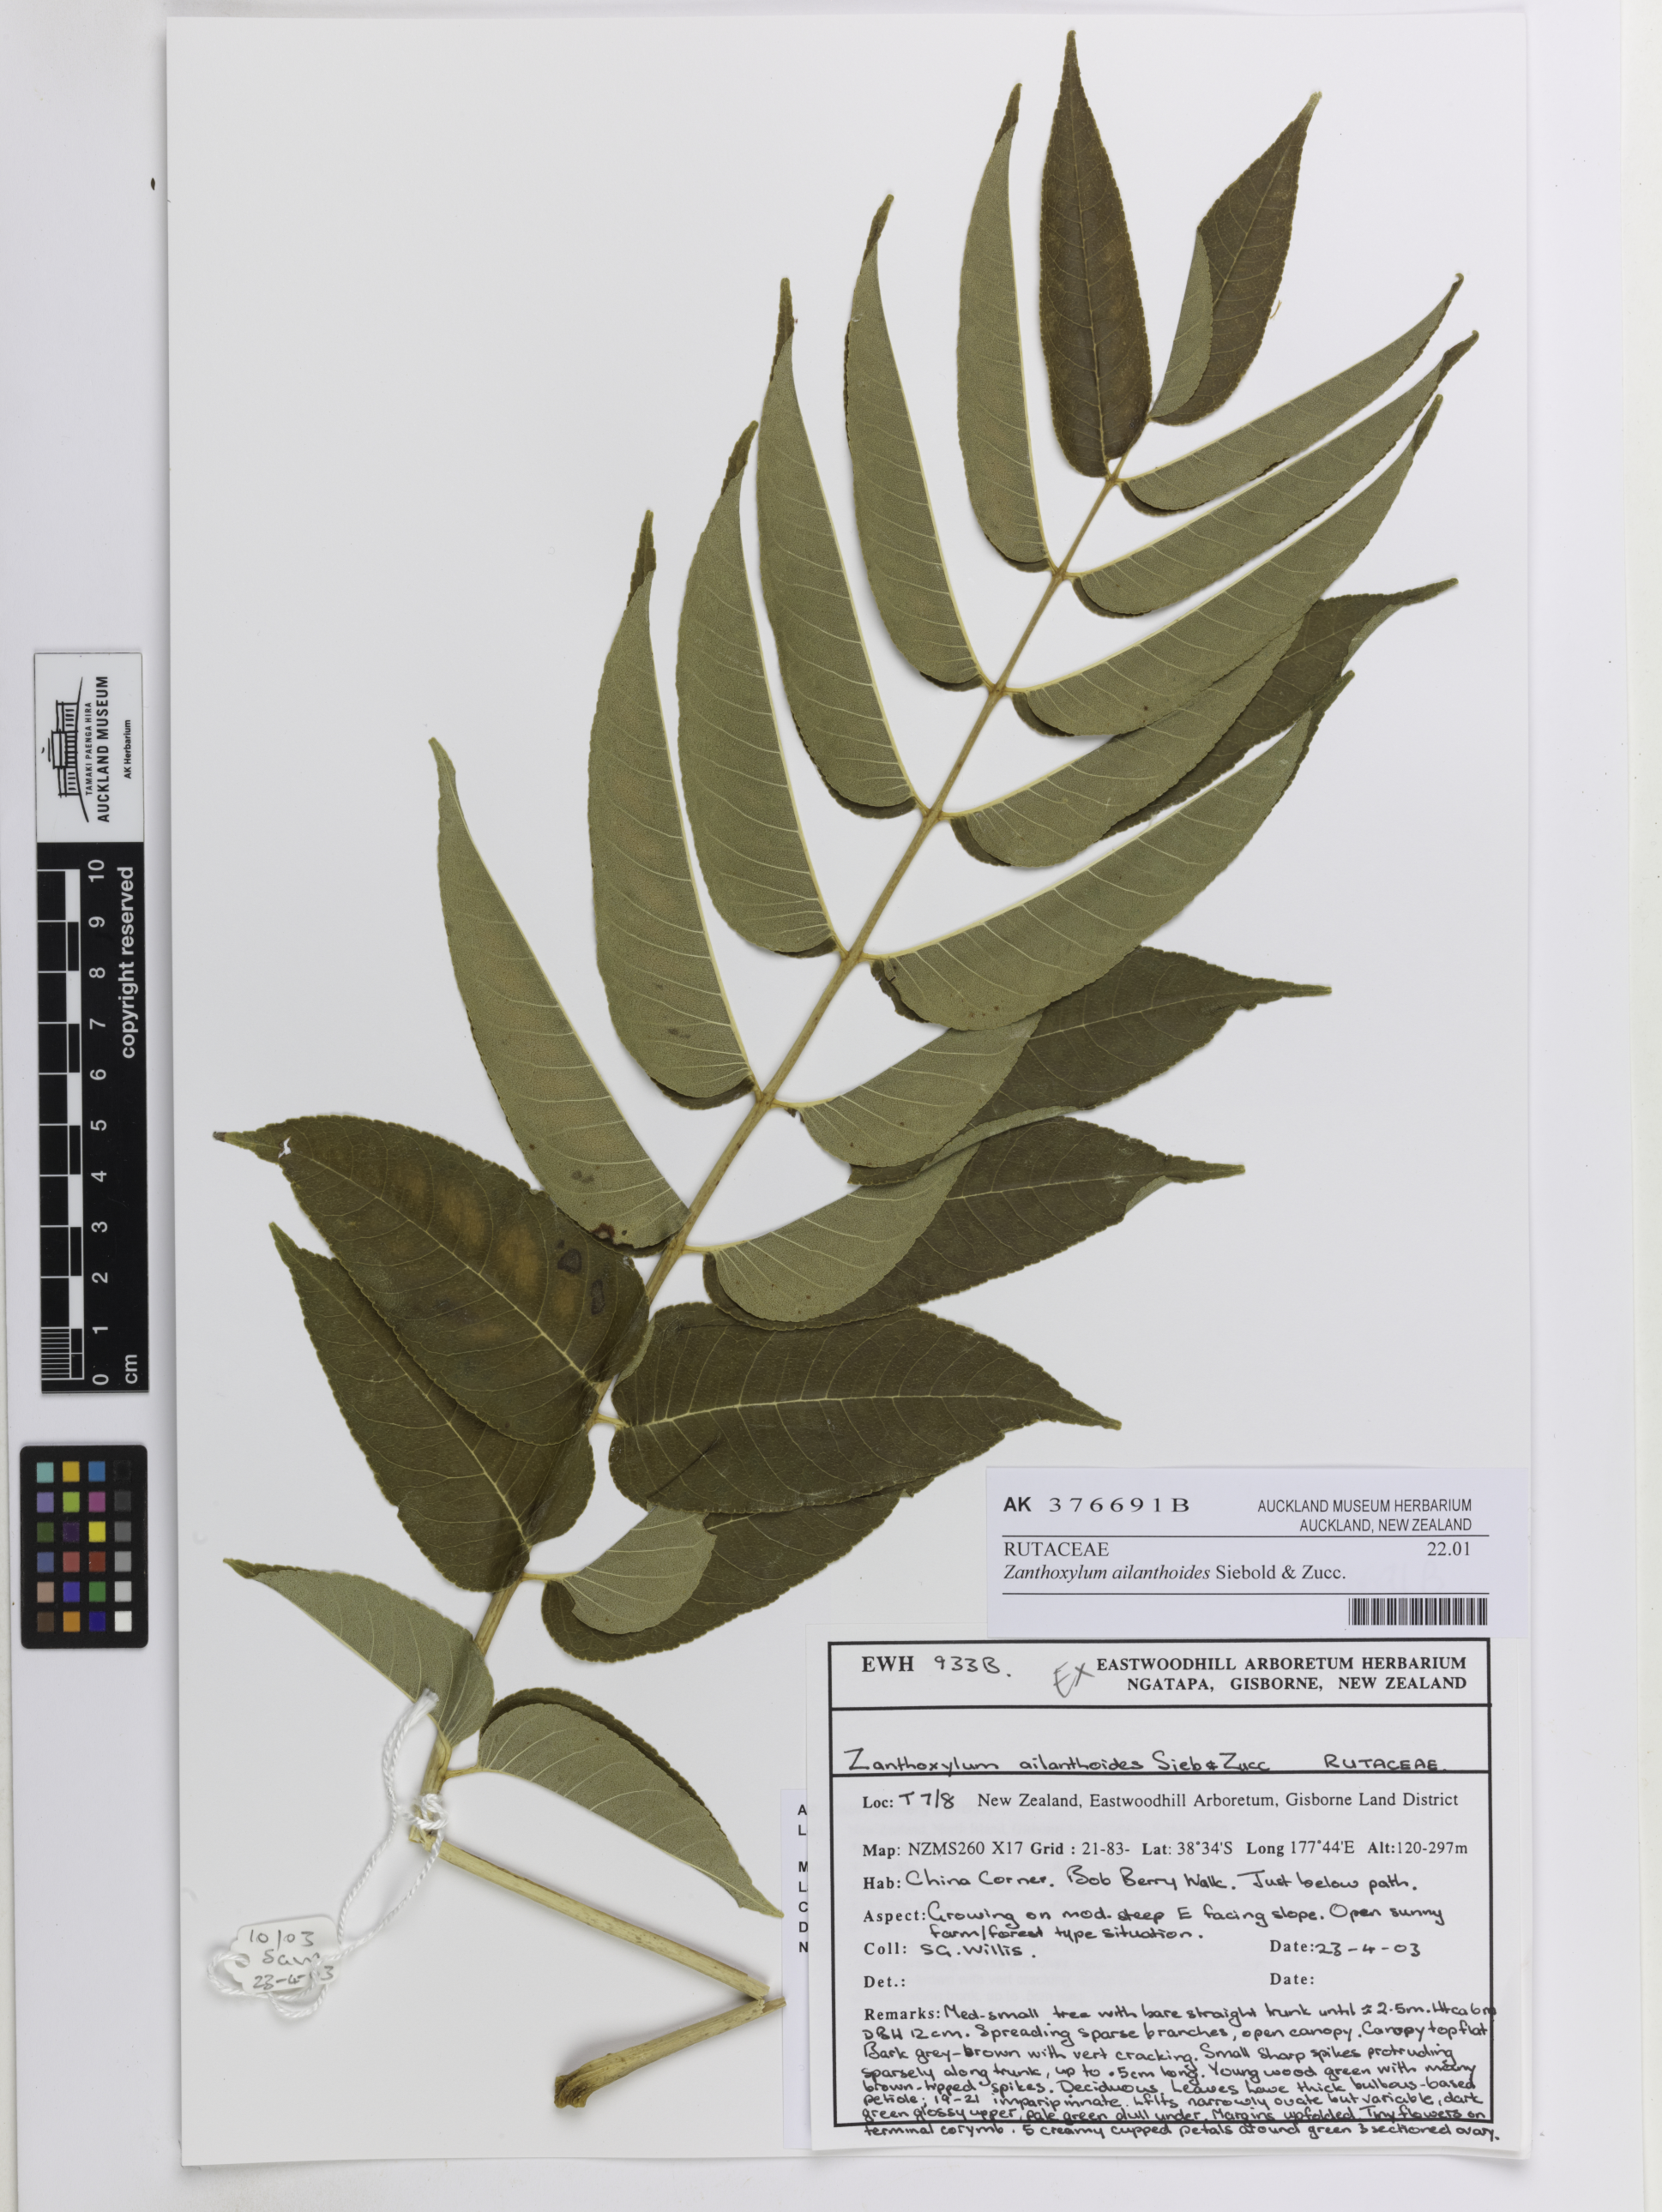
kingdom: Plantae
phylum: Tracheophyta
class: Magnoliopsida
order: Sapindales
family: Rutaceae
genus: Zanthoxylum
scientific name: Zanthoxylum ailanthoides
